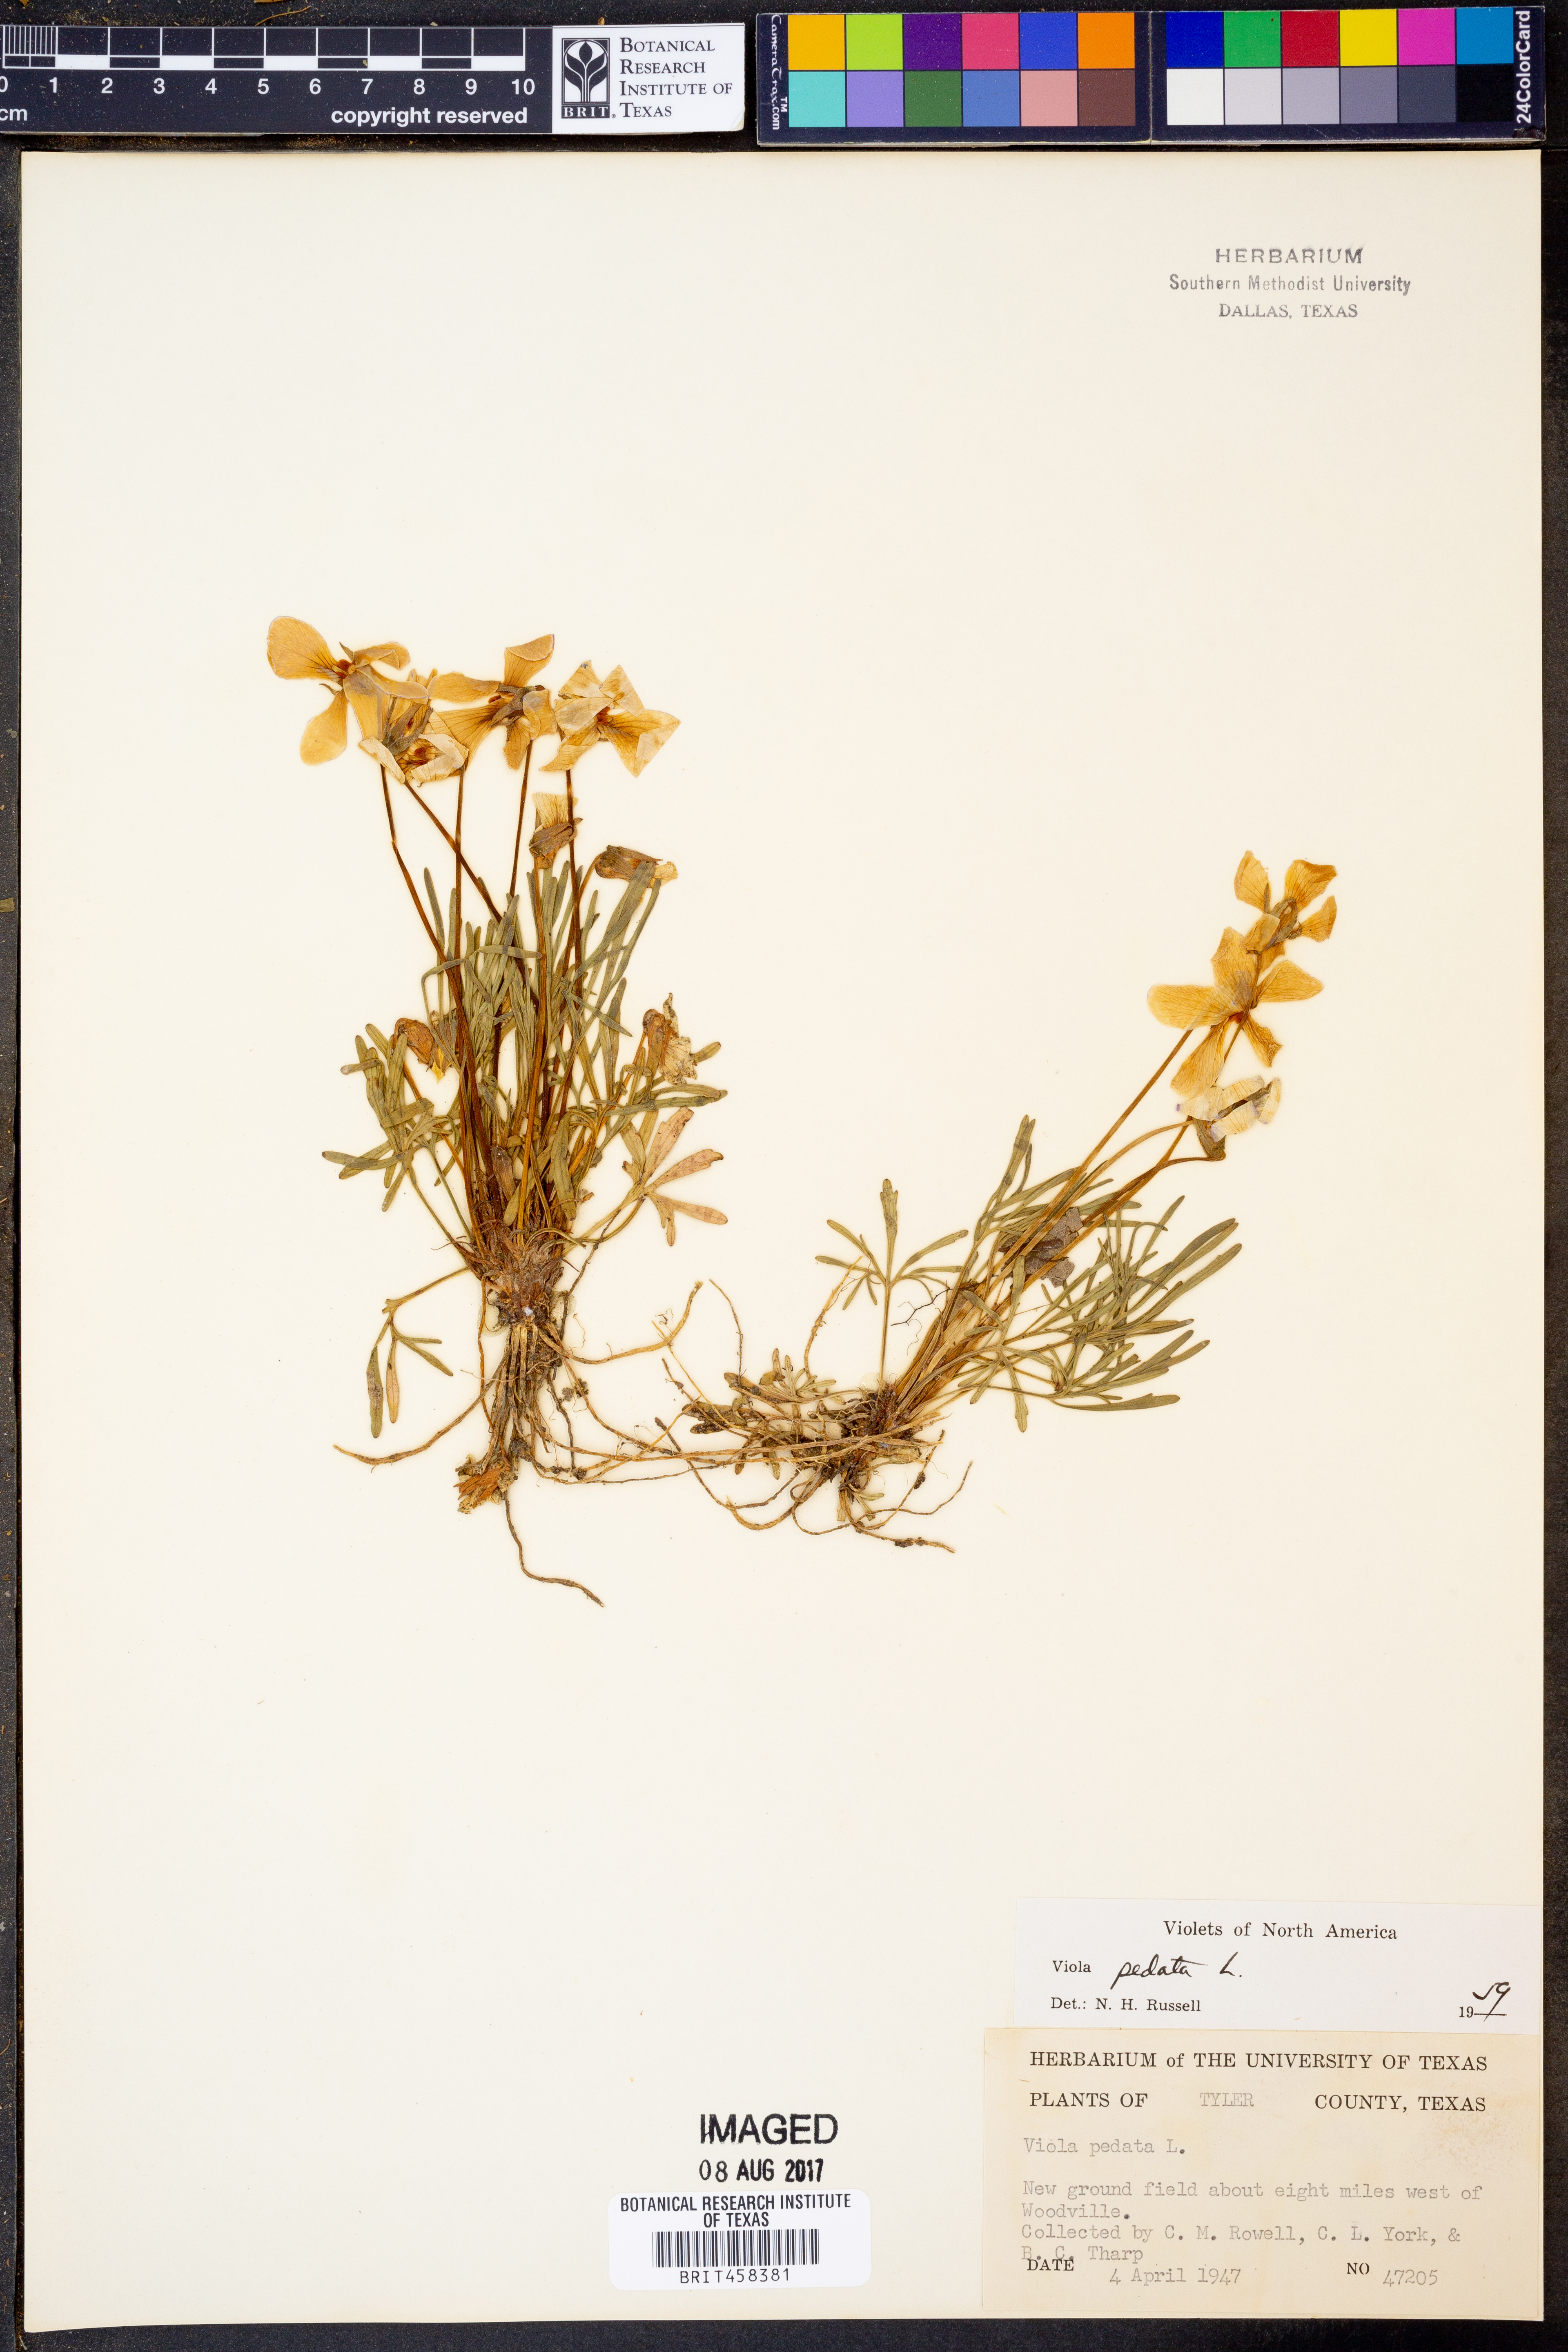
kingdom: Plantae
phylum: Tracheophyta
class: Magnoliopsida
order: Malpighiales
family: Violaceae
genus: Viola
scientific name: Viola pedata
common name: Pansy violet
